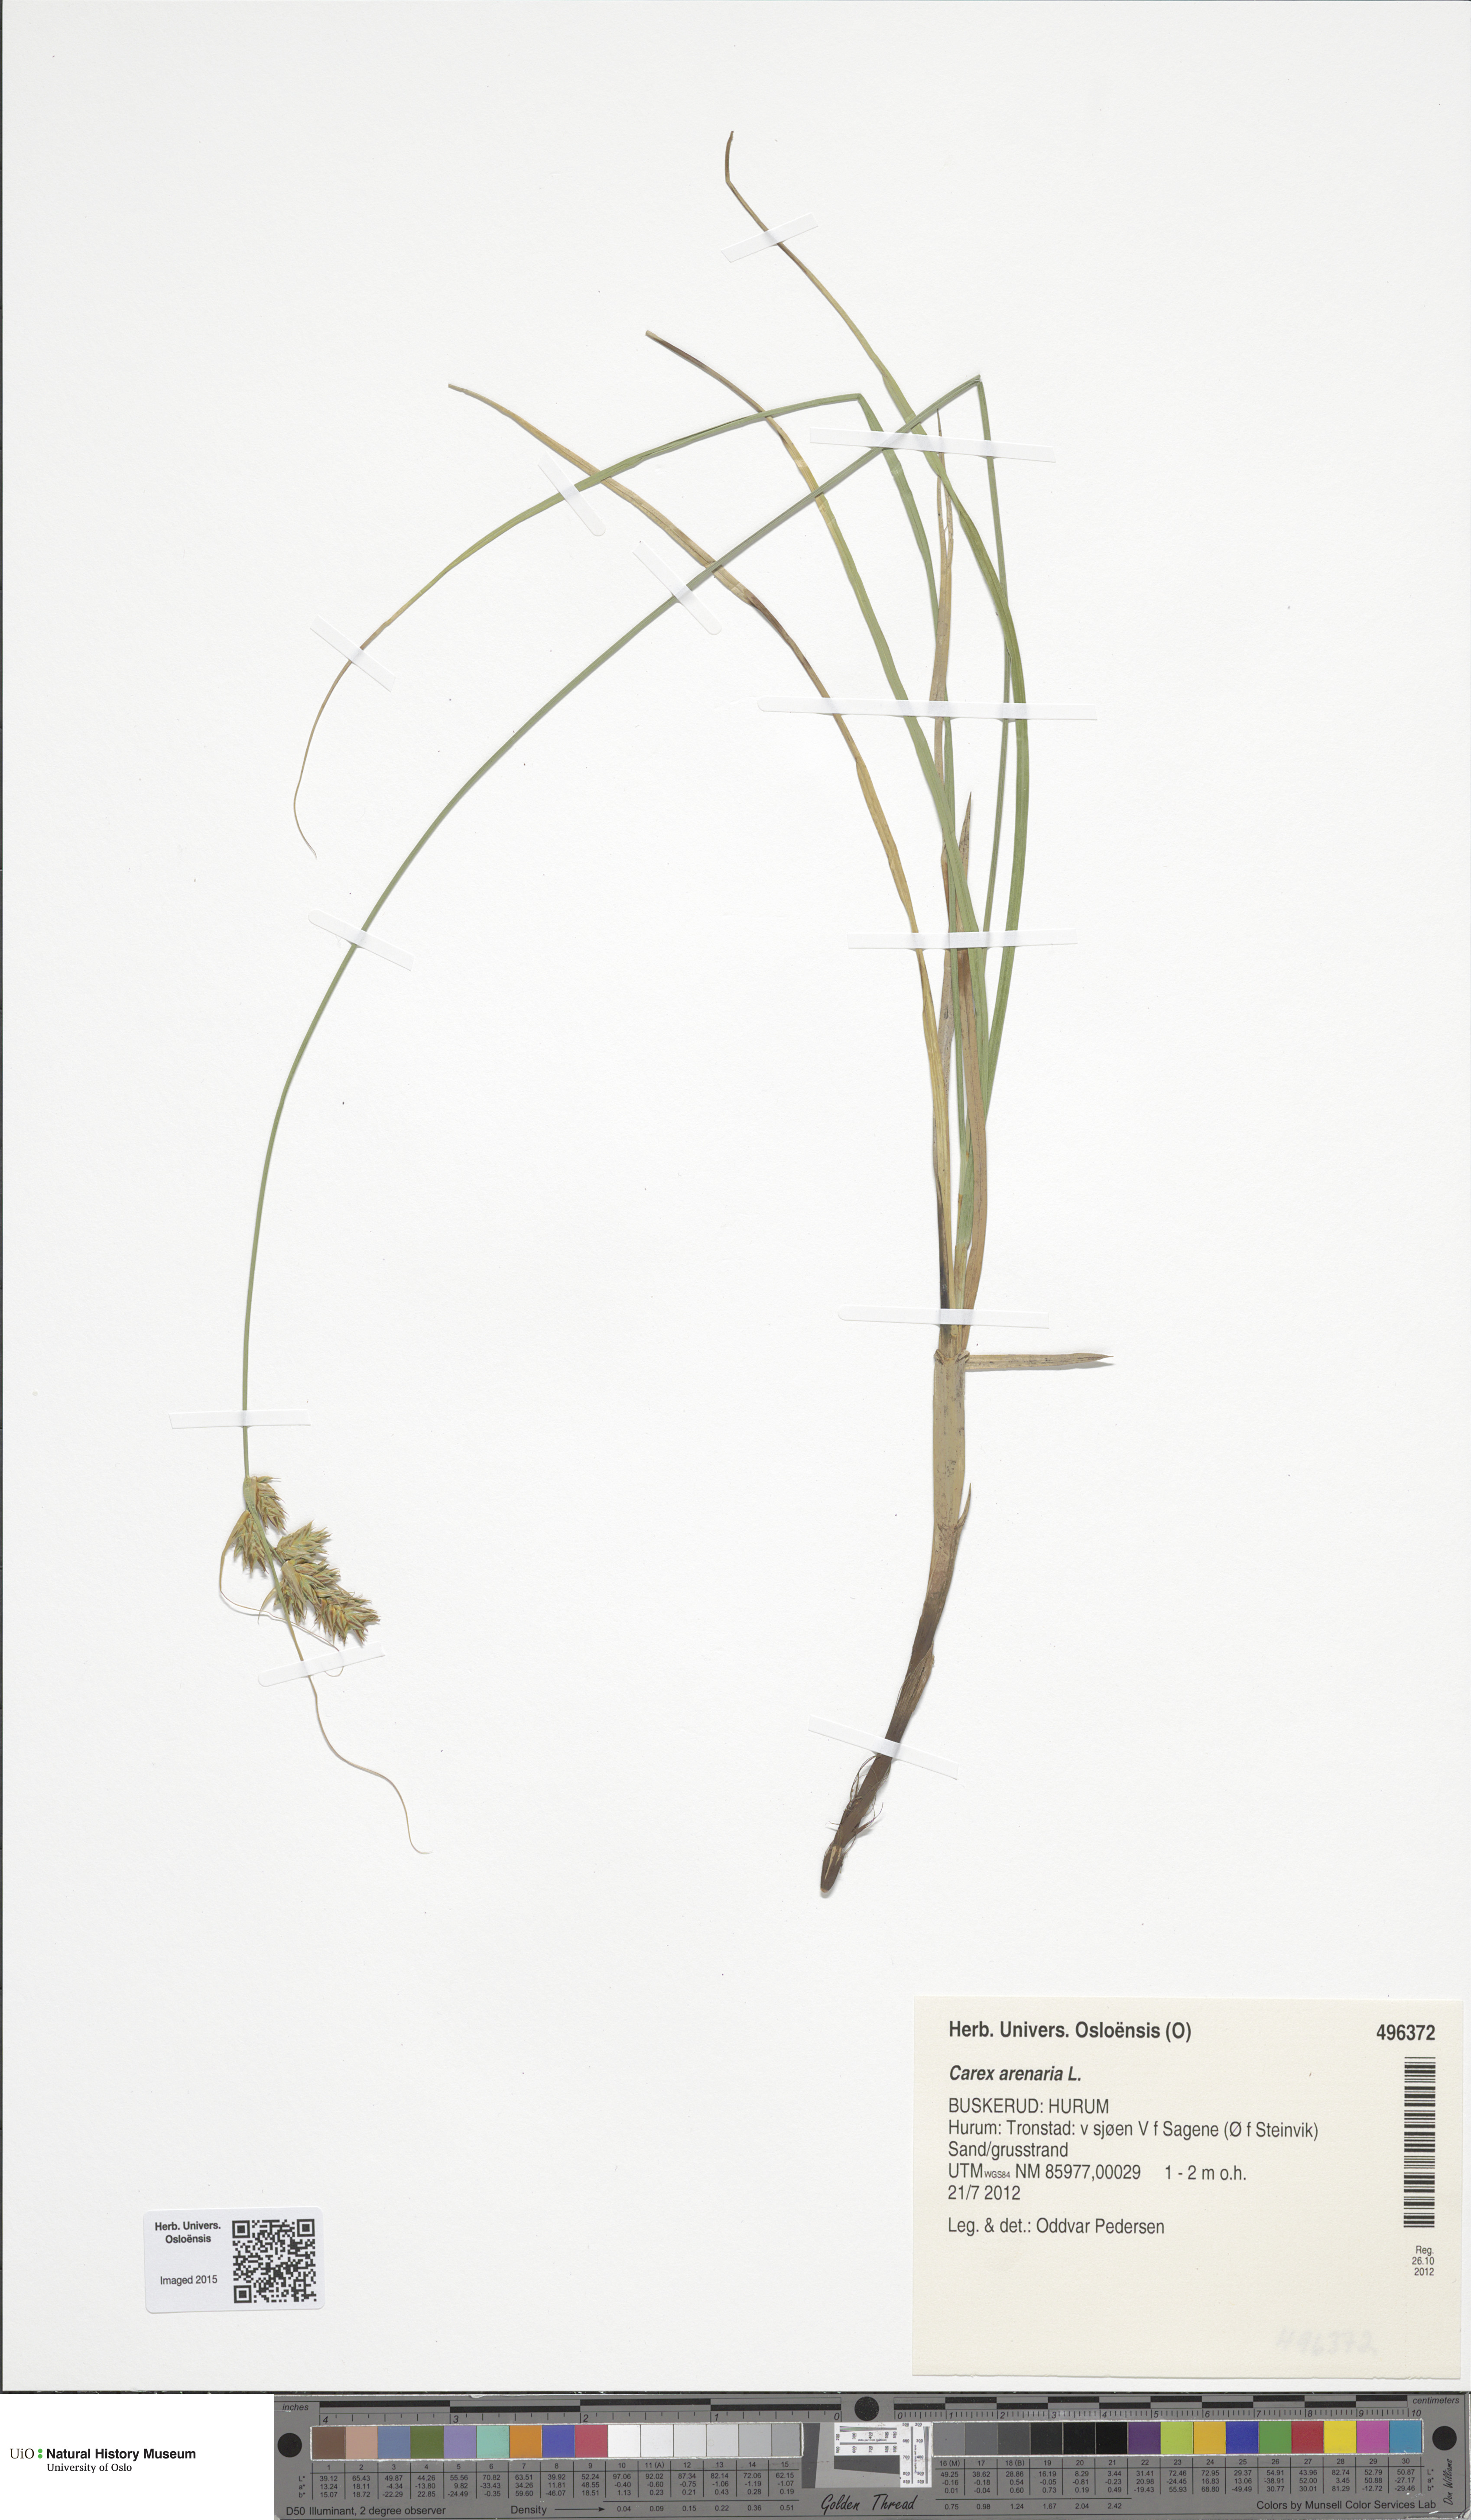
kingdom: Plantae
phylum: Tracheophyta
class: Liliopsida
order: Poales
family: Cyperaceae
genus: Carex
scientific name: Carex arenaria
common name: Sand sedge
